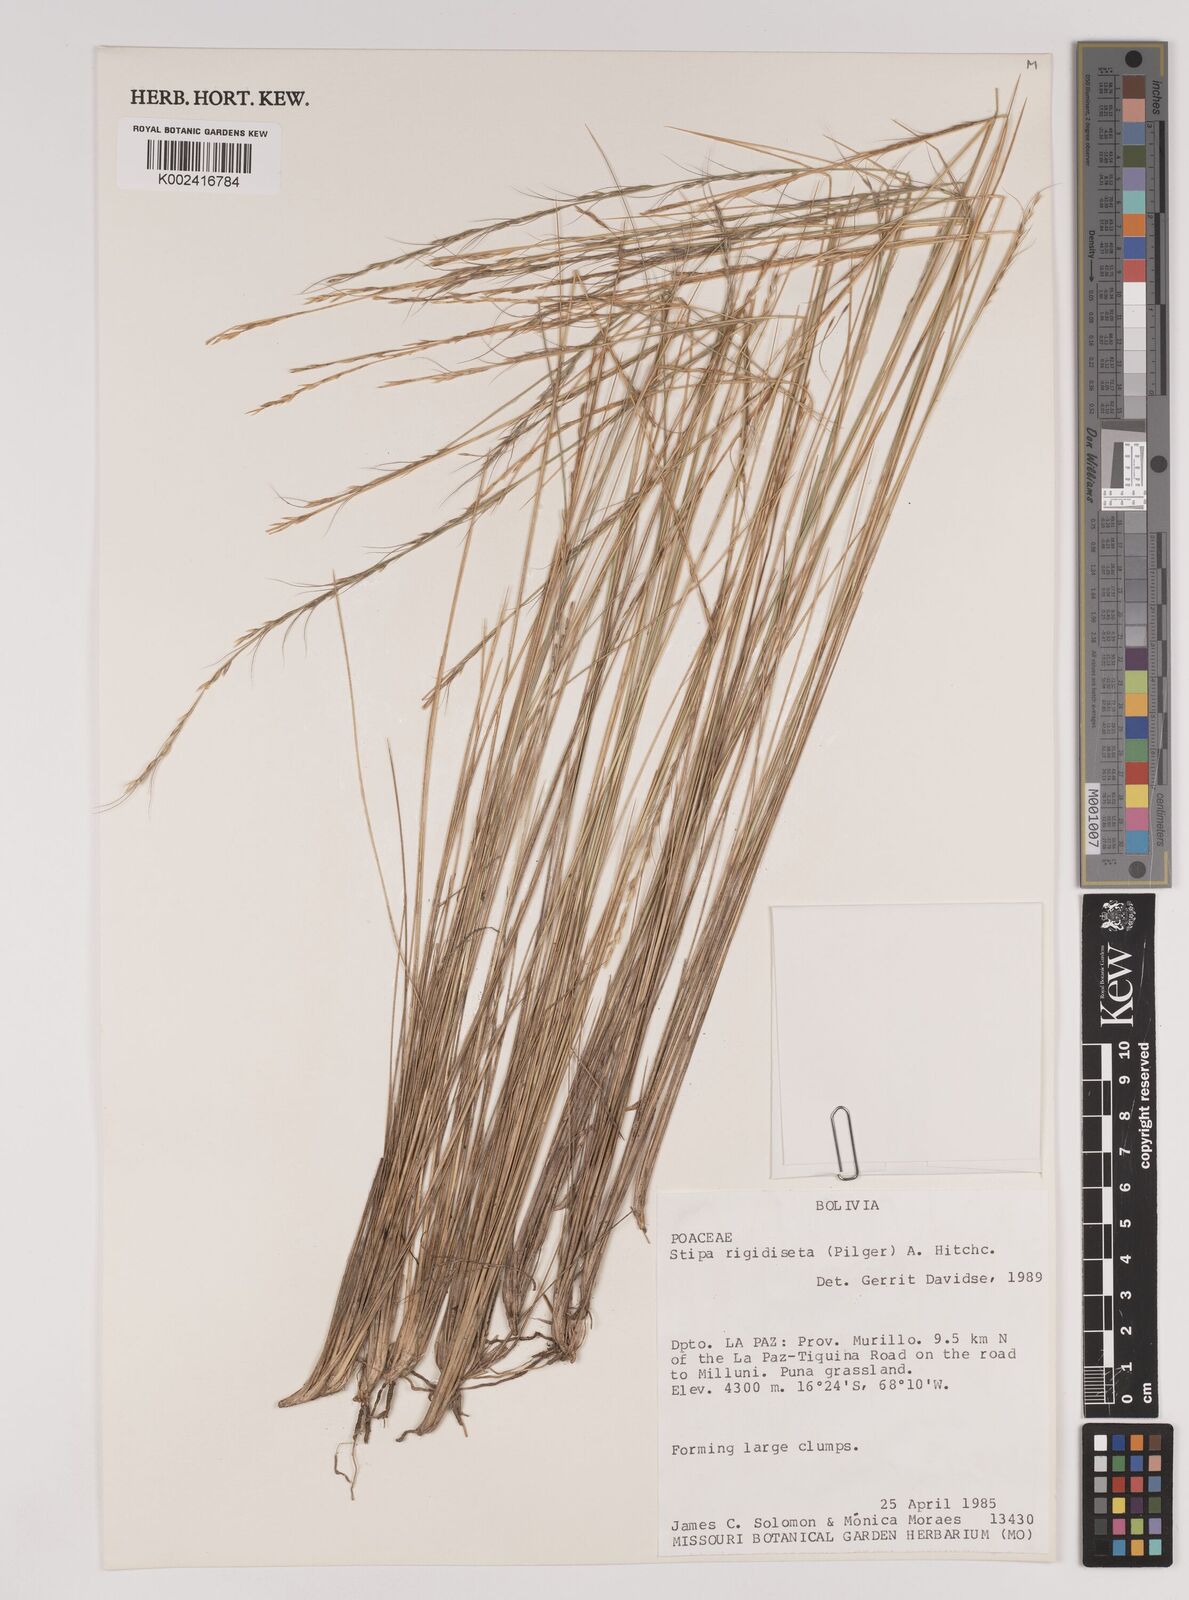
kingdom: Plantae
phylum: Tracheophyta
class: Liliopsida
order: Poales
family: Poaceae
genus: Stipa
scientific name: Stipa rigidiseta
